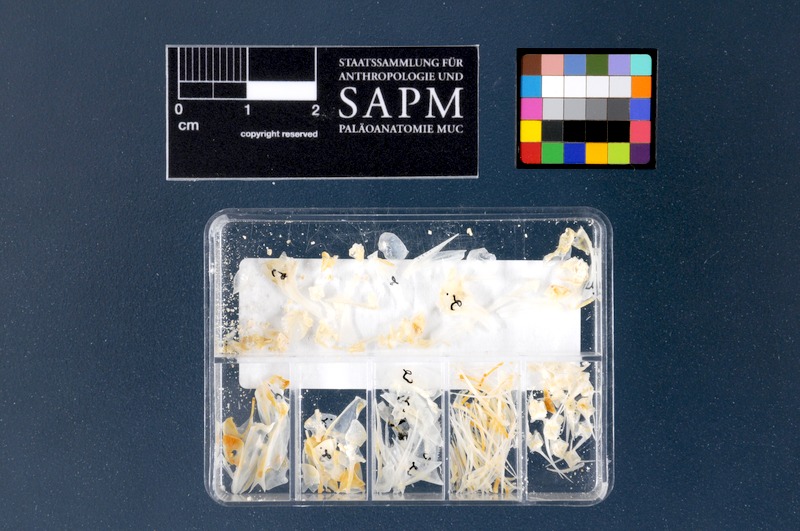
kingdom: Animalia
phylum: Chordata
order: Perciformes
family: Serranidae
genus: Serranus
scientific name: Serranus hepatus
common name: Brown comber
